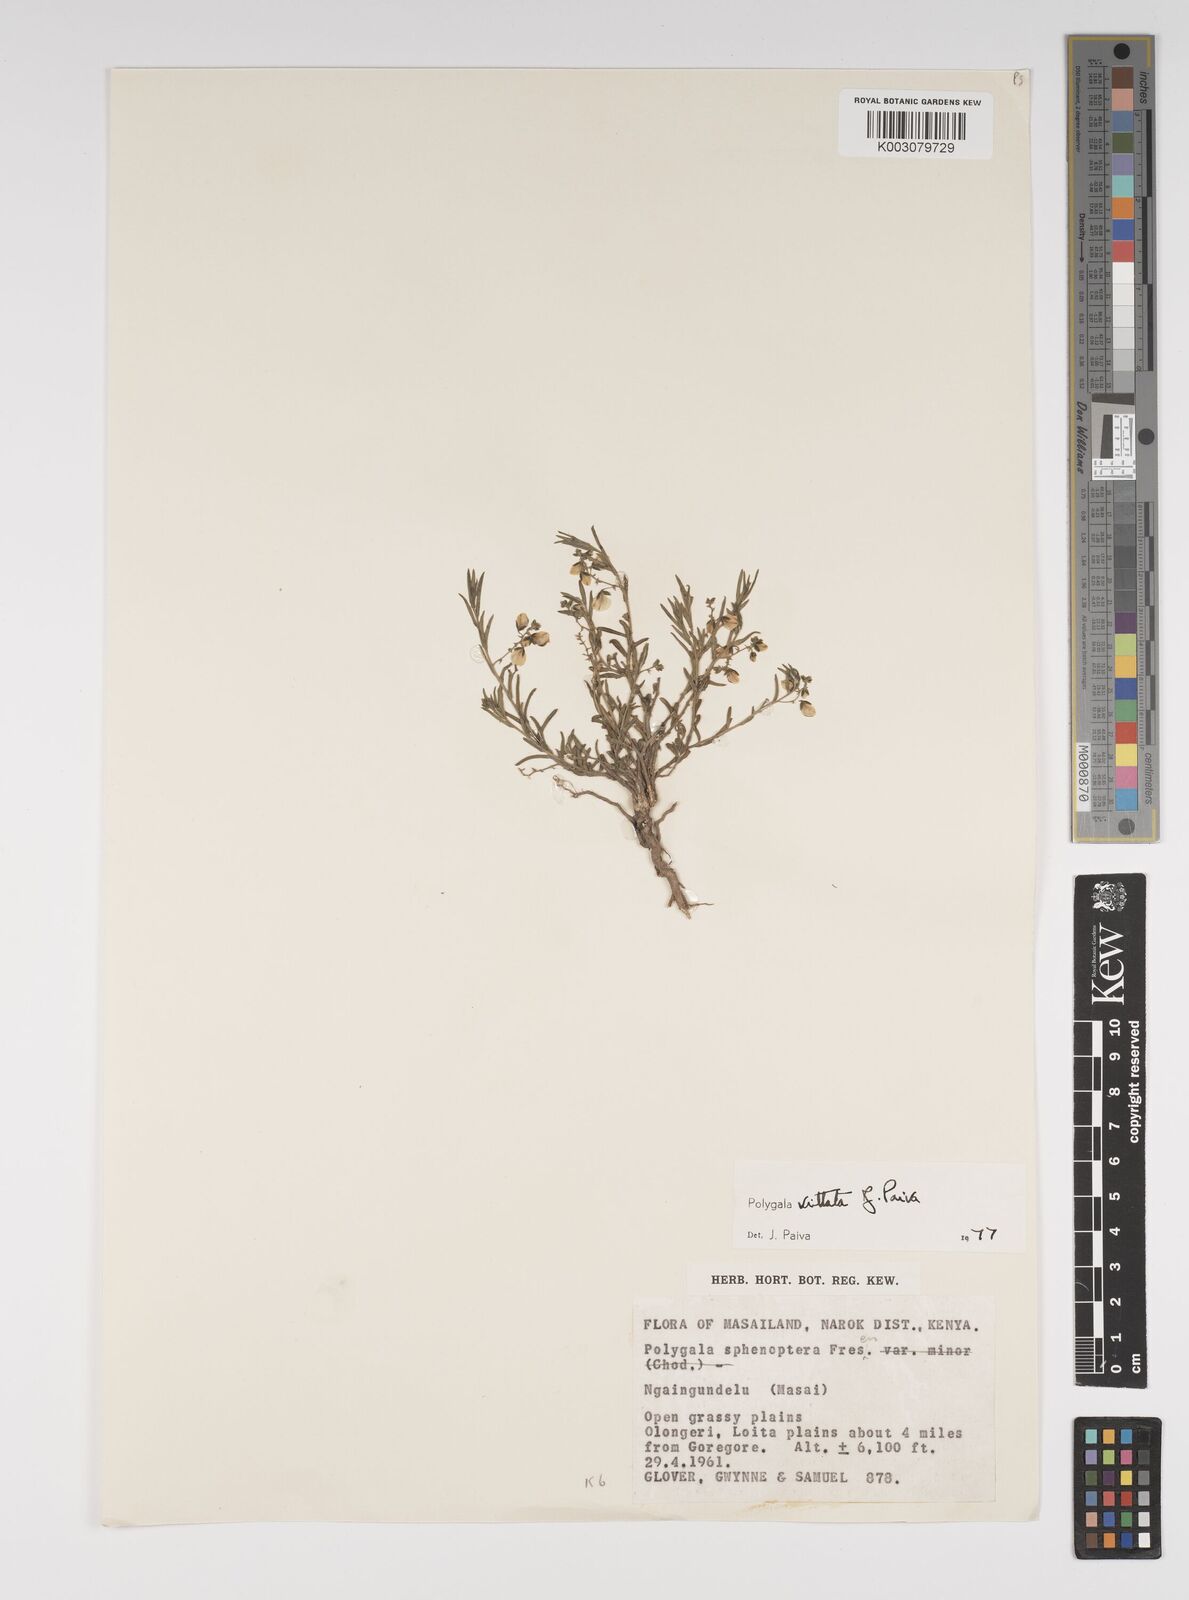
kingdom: Plantae
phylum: Tracheophyta
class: Magnoliopsida
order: Fabales
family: Polygalaceae
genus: Polygala
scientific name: Polygala vittata
